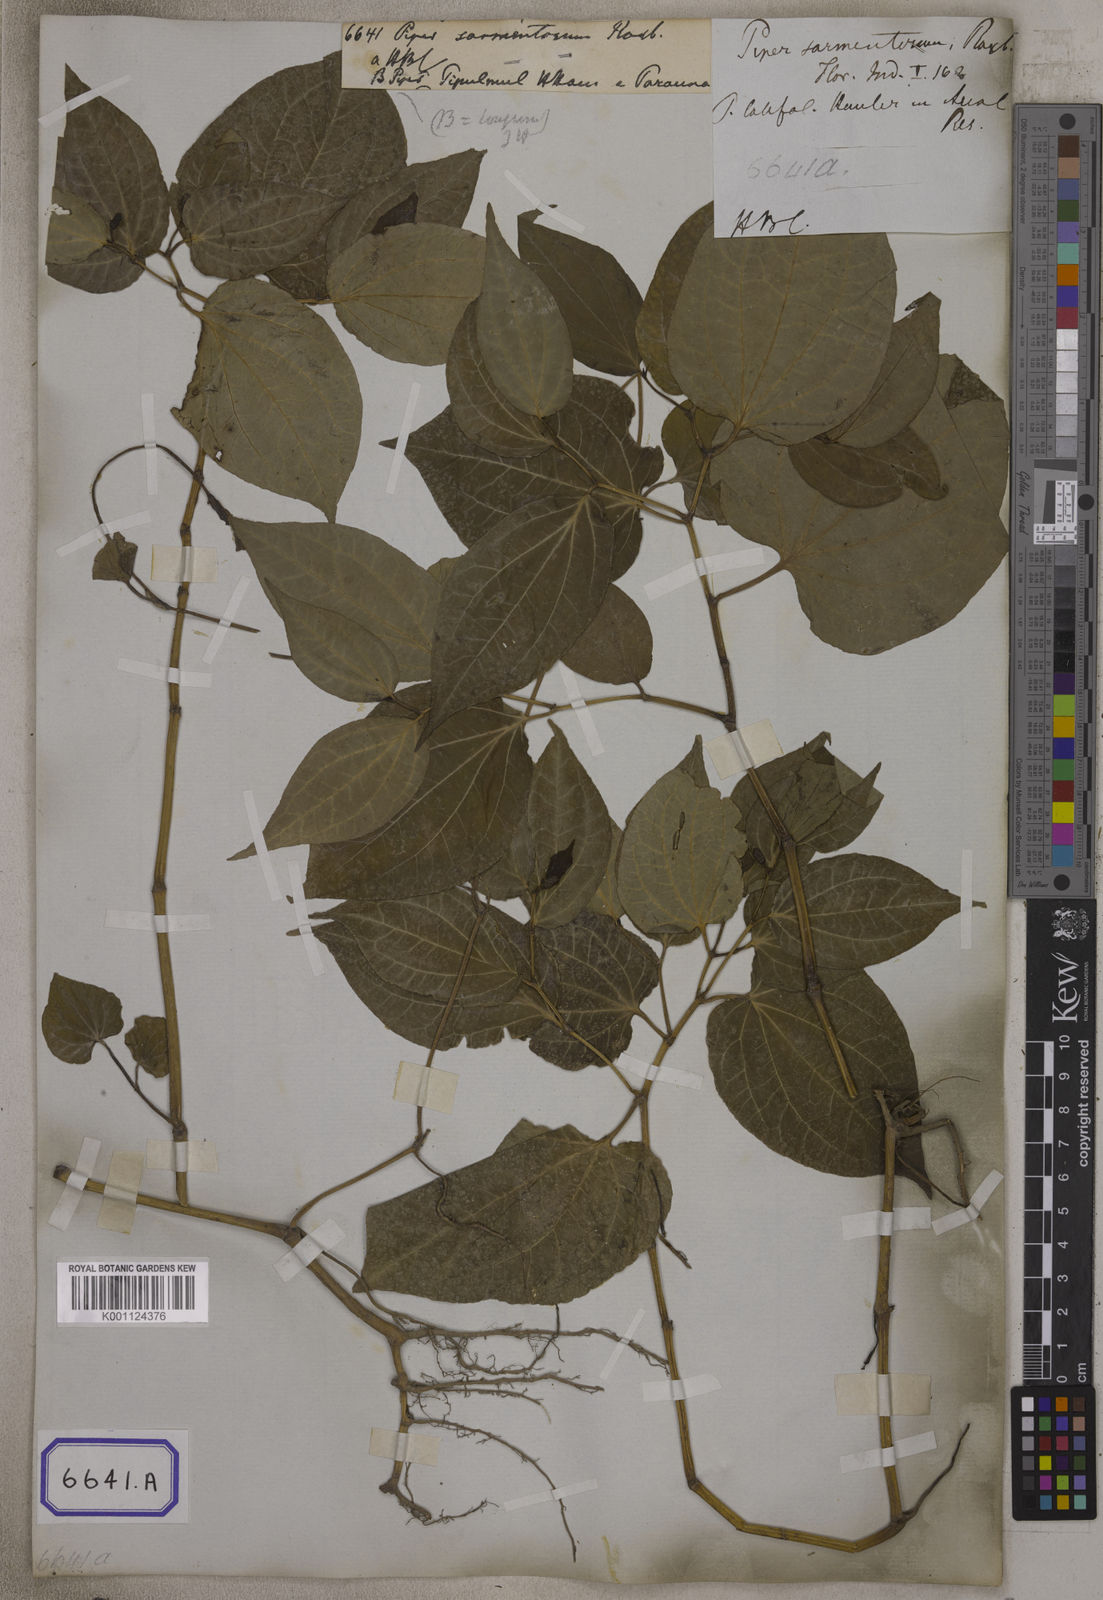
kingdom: Plantae
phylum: Tracheophyta
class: Magnoliopsida
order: Piperales
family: Piperaceae
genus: Piper
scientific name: Piper longum
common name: Long pepper
